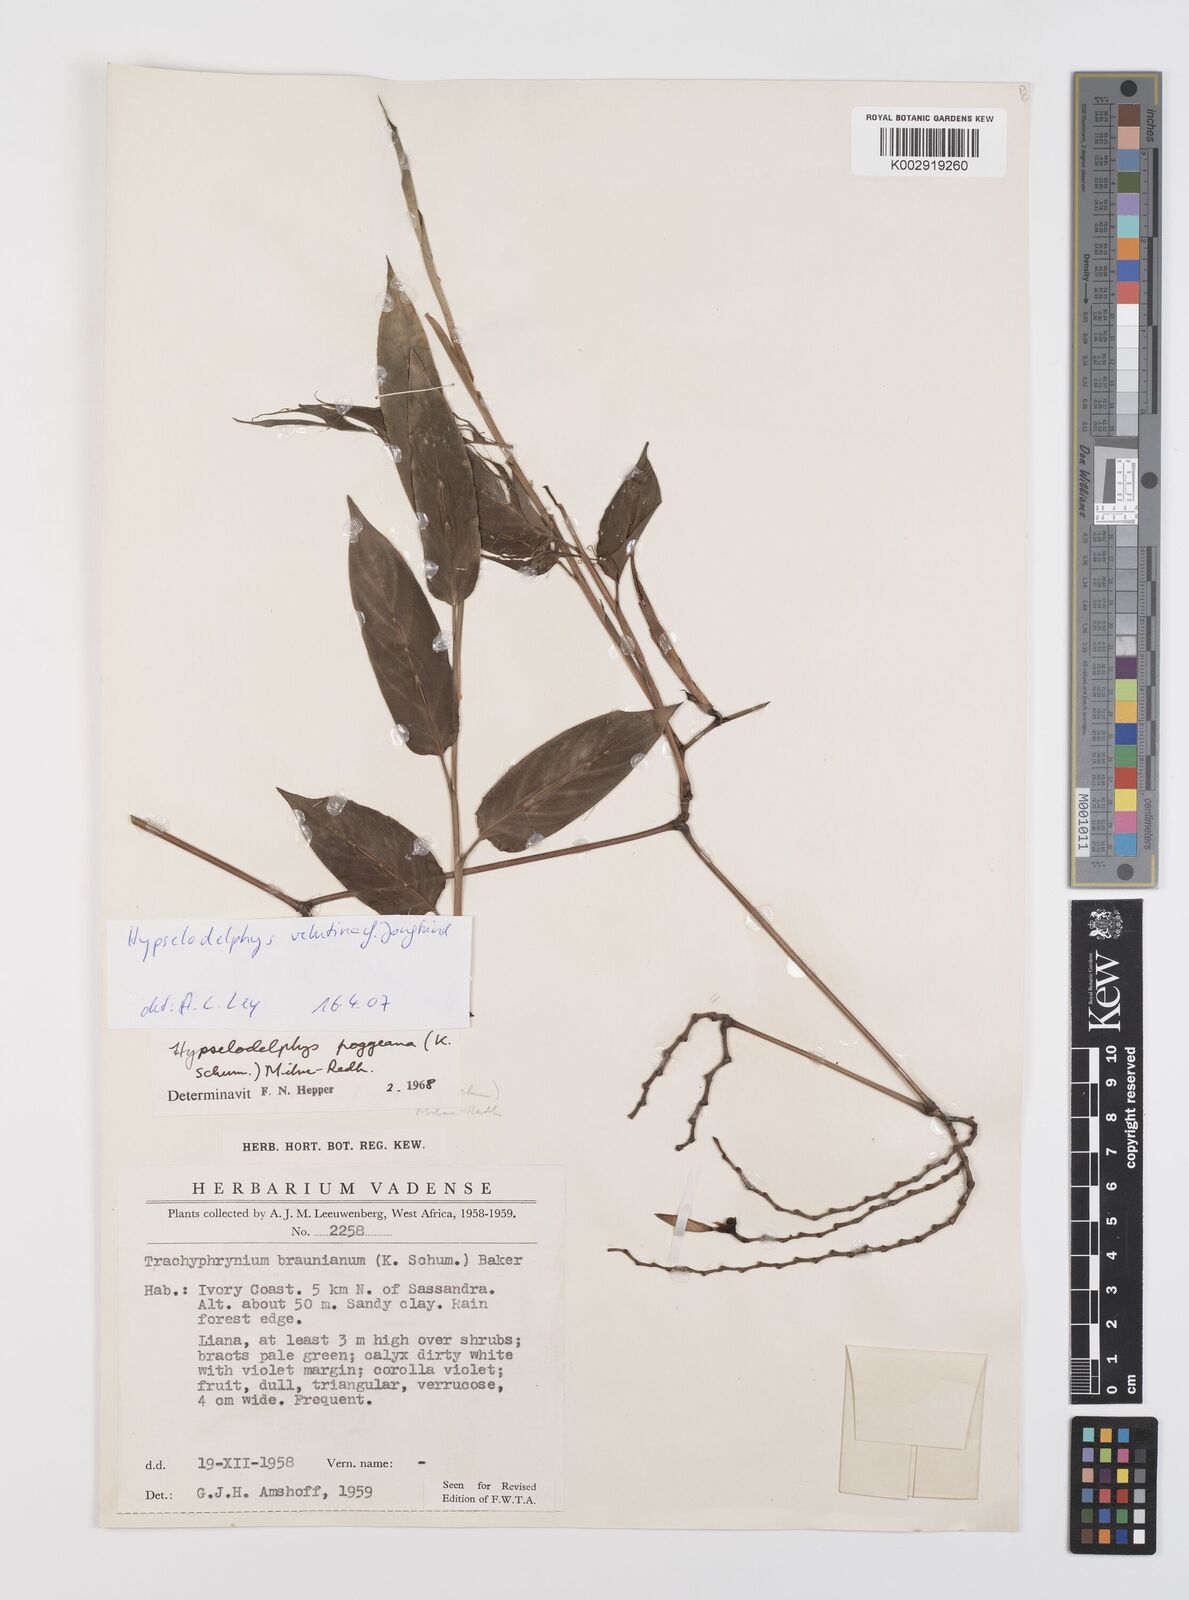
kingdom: Plantae
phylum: Tracheophyta
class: Liliopsida
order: Zingiberales
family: Marantaceae
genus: Hypselodelphys
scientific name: Hypselodelphys velutina
